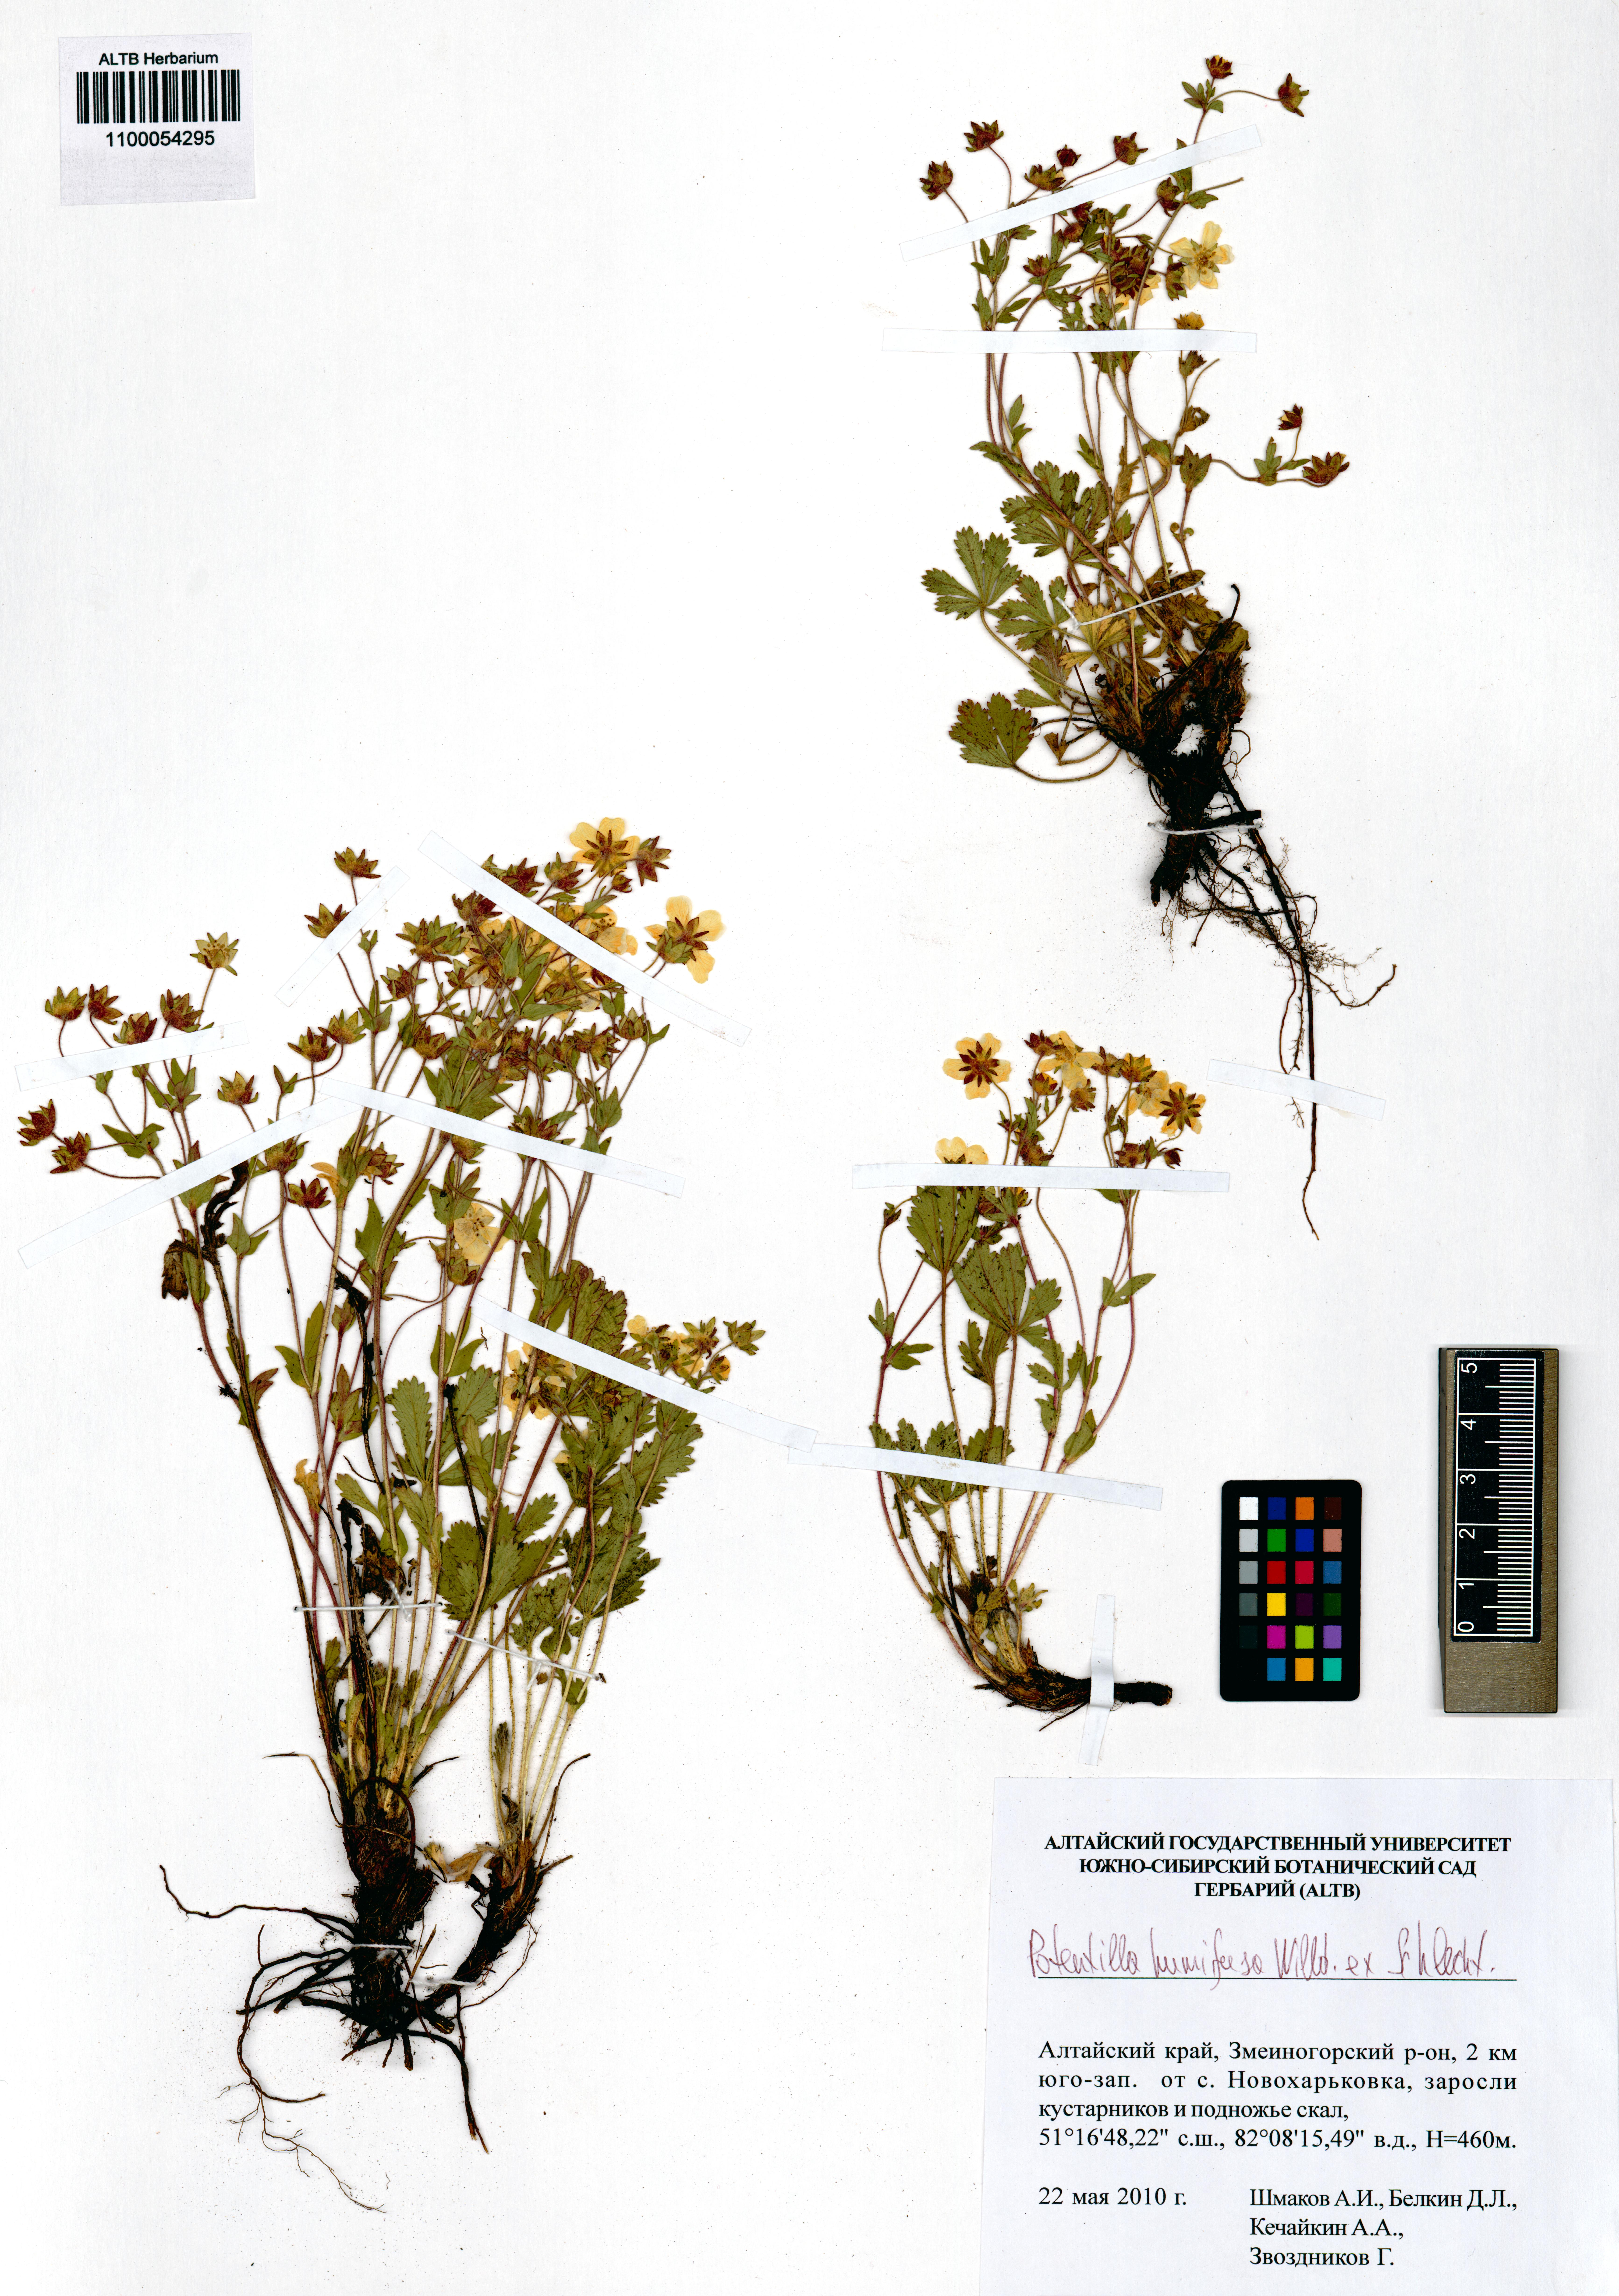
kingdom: Plantae
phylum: Tracheophyta
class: Magnoliopsida
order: Rosales
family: Rosaceae
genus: Potentilla
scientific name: Potentilla humifusa
